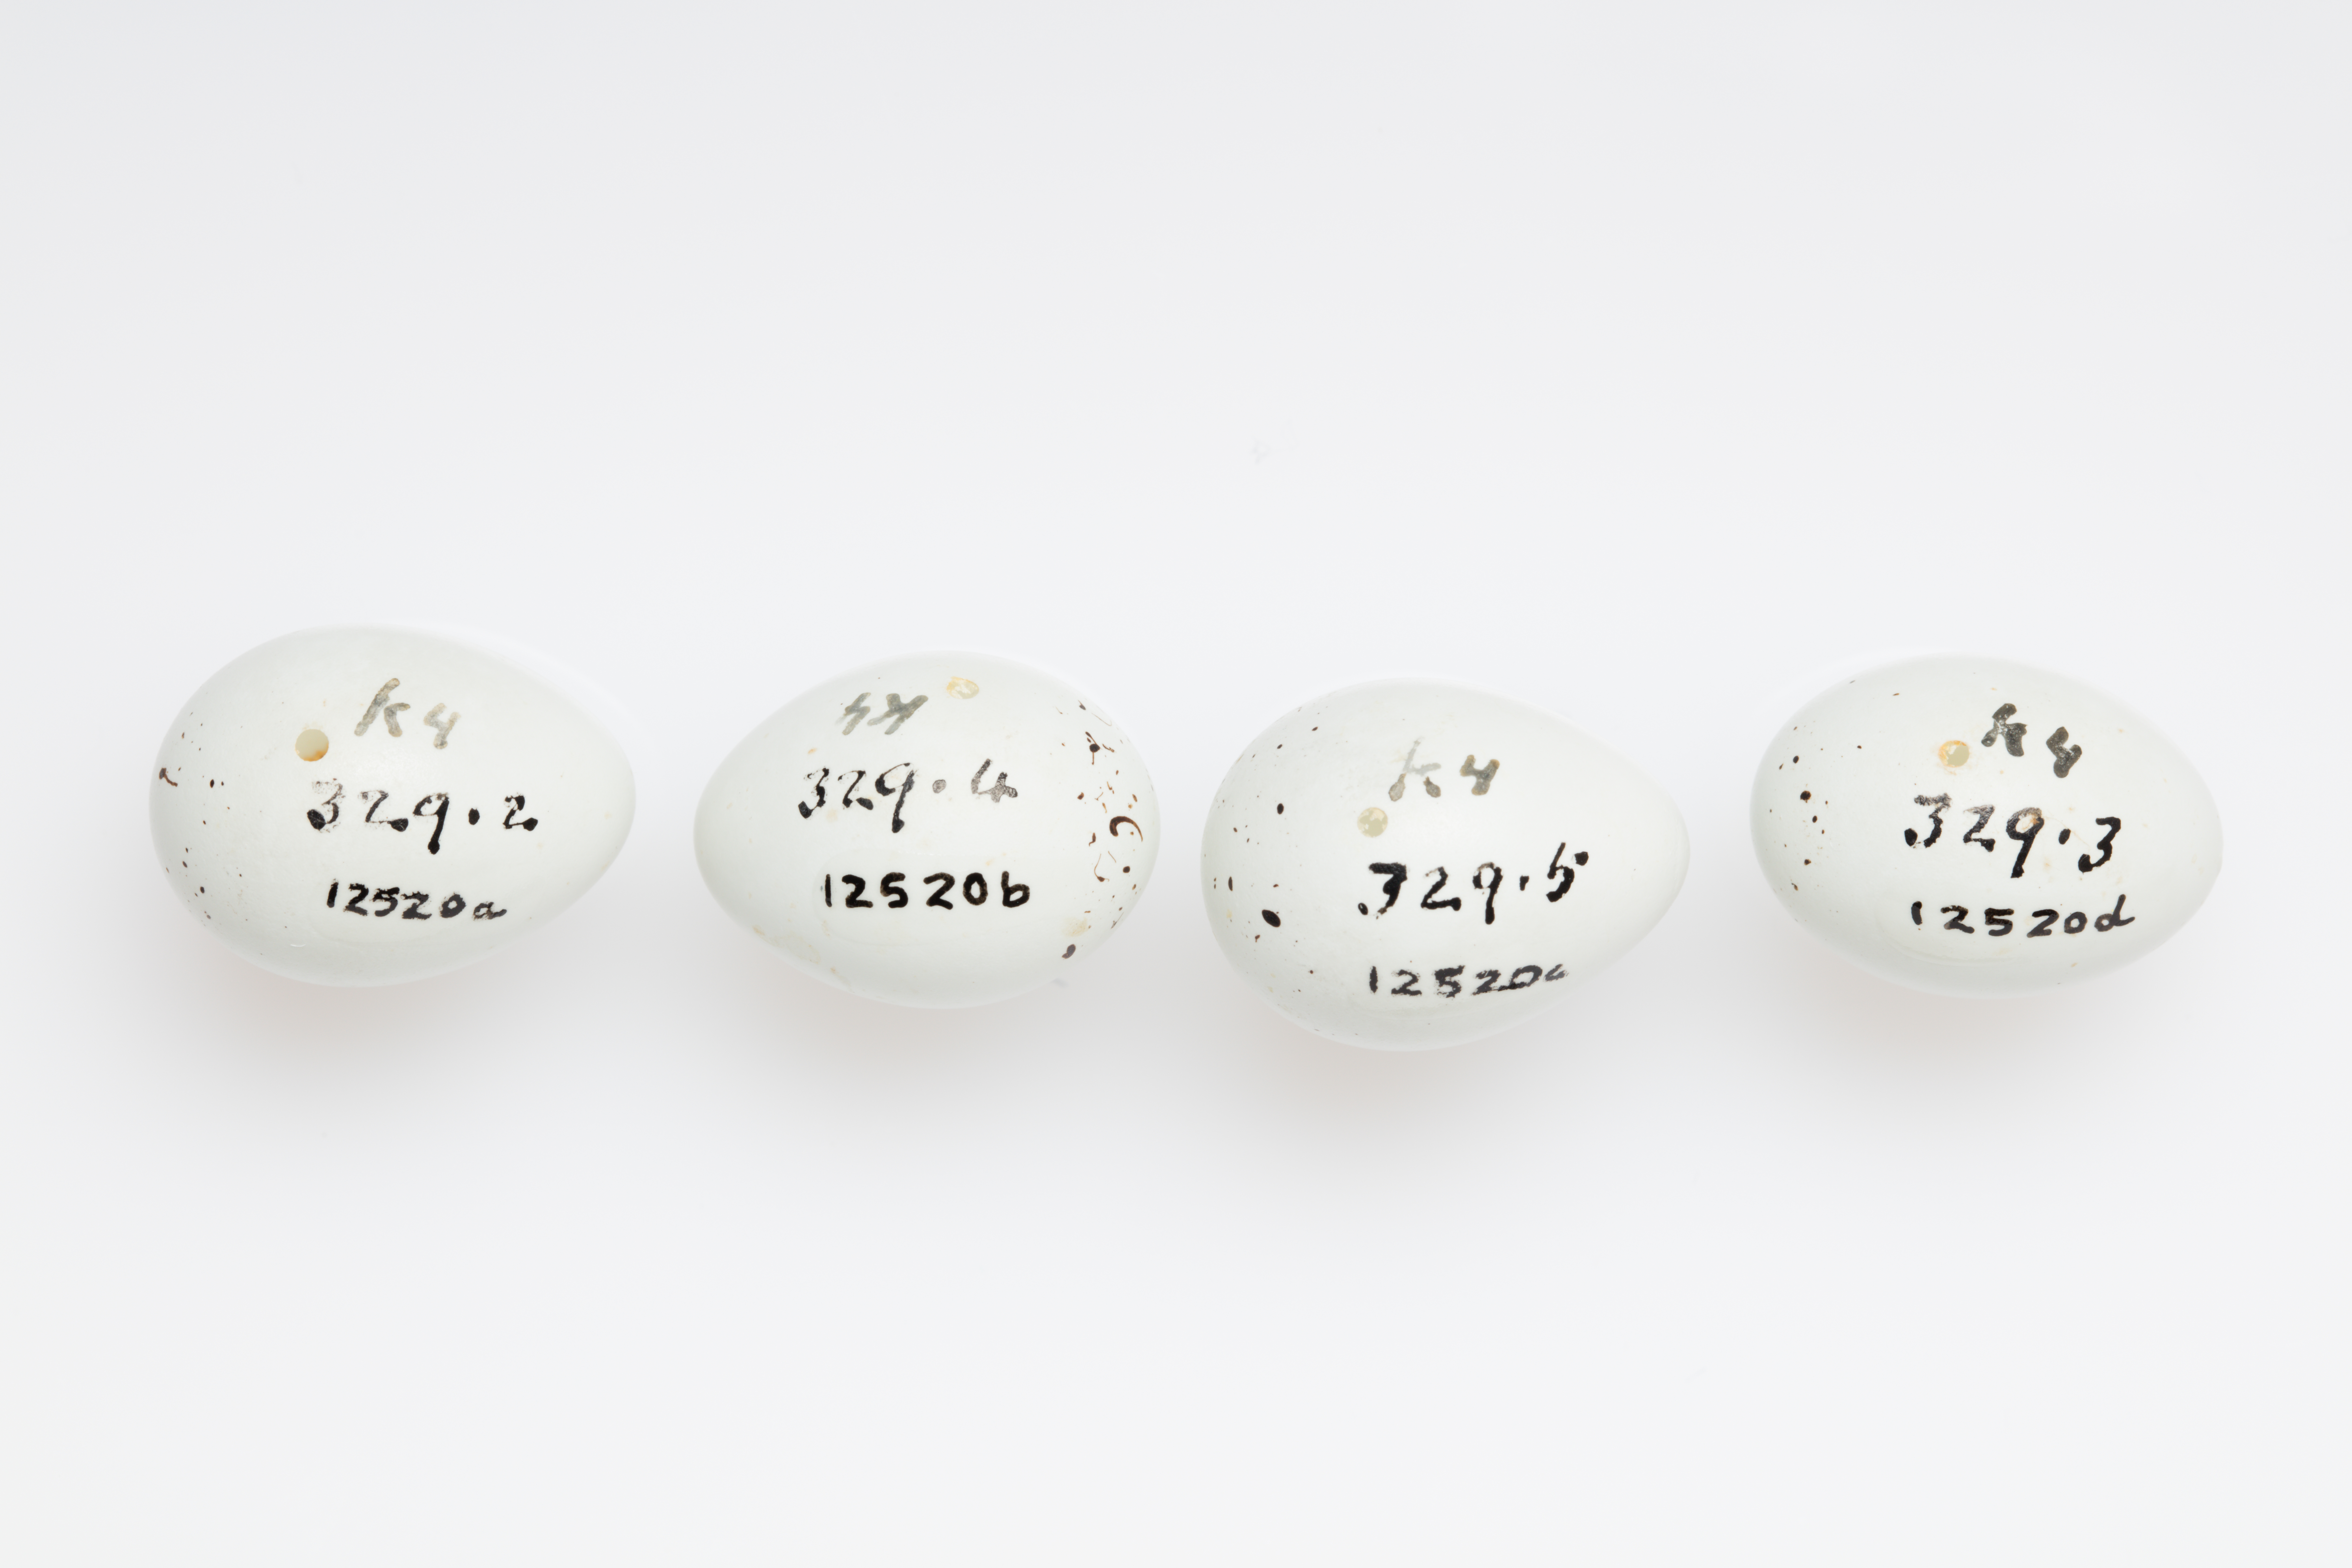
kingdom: Animalia
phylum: Chordata
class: Aves
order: Passeriformes
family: Fringillidae
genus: Haemorhous
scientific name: Haemorhous mexicanus
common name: House finch
